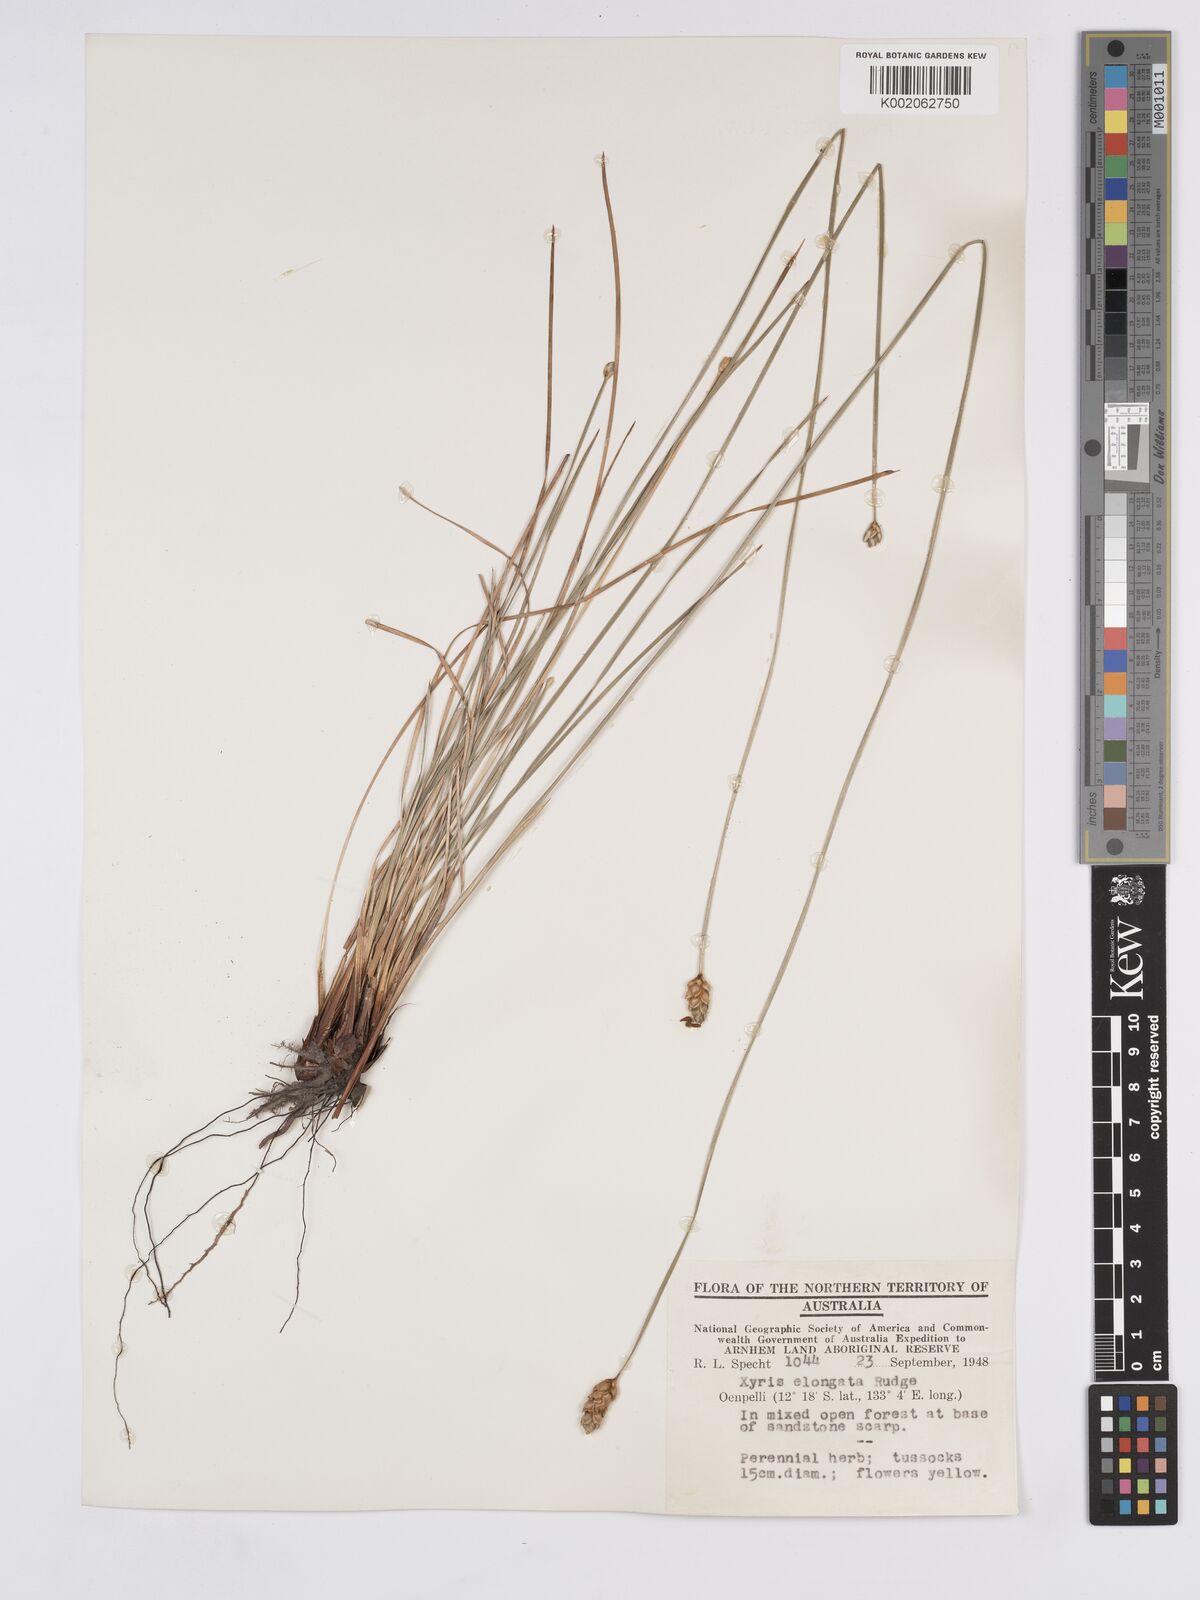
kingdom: Plantae
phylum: Tracheophyta
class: Liliopsida
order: Poales
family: Xyridaceae
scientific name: Xyridaceae
